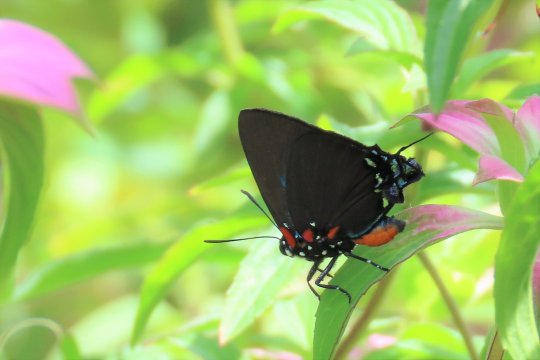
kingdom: Animalia
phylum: Arthropoda
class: Insecta
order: Lepidoptera
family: Lycaenidae
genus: Atlides
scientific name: Atlides halesus
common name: Great Purple Hairstreak
